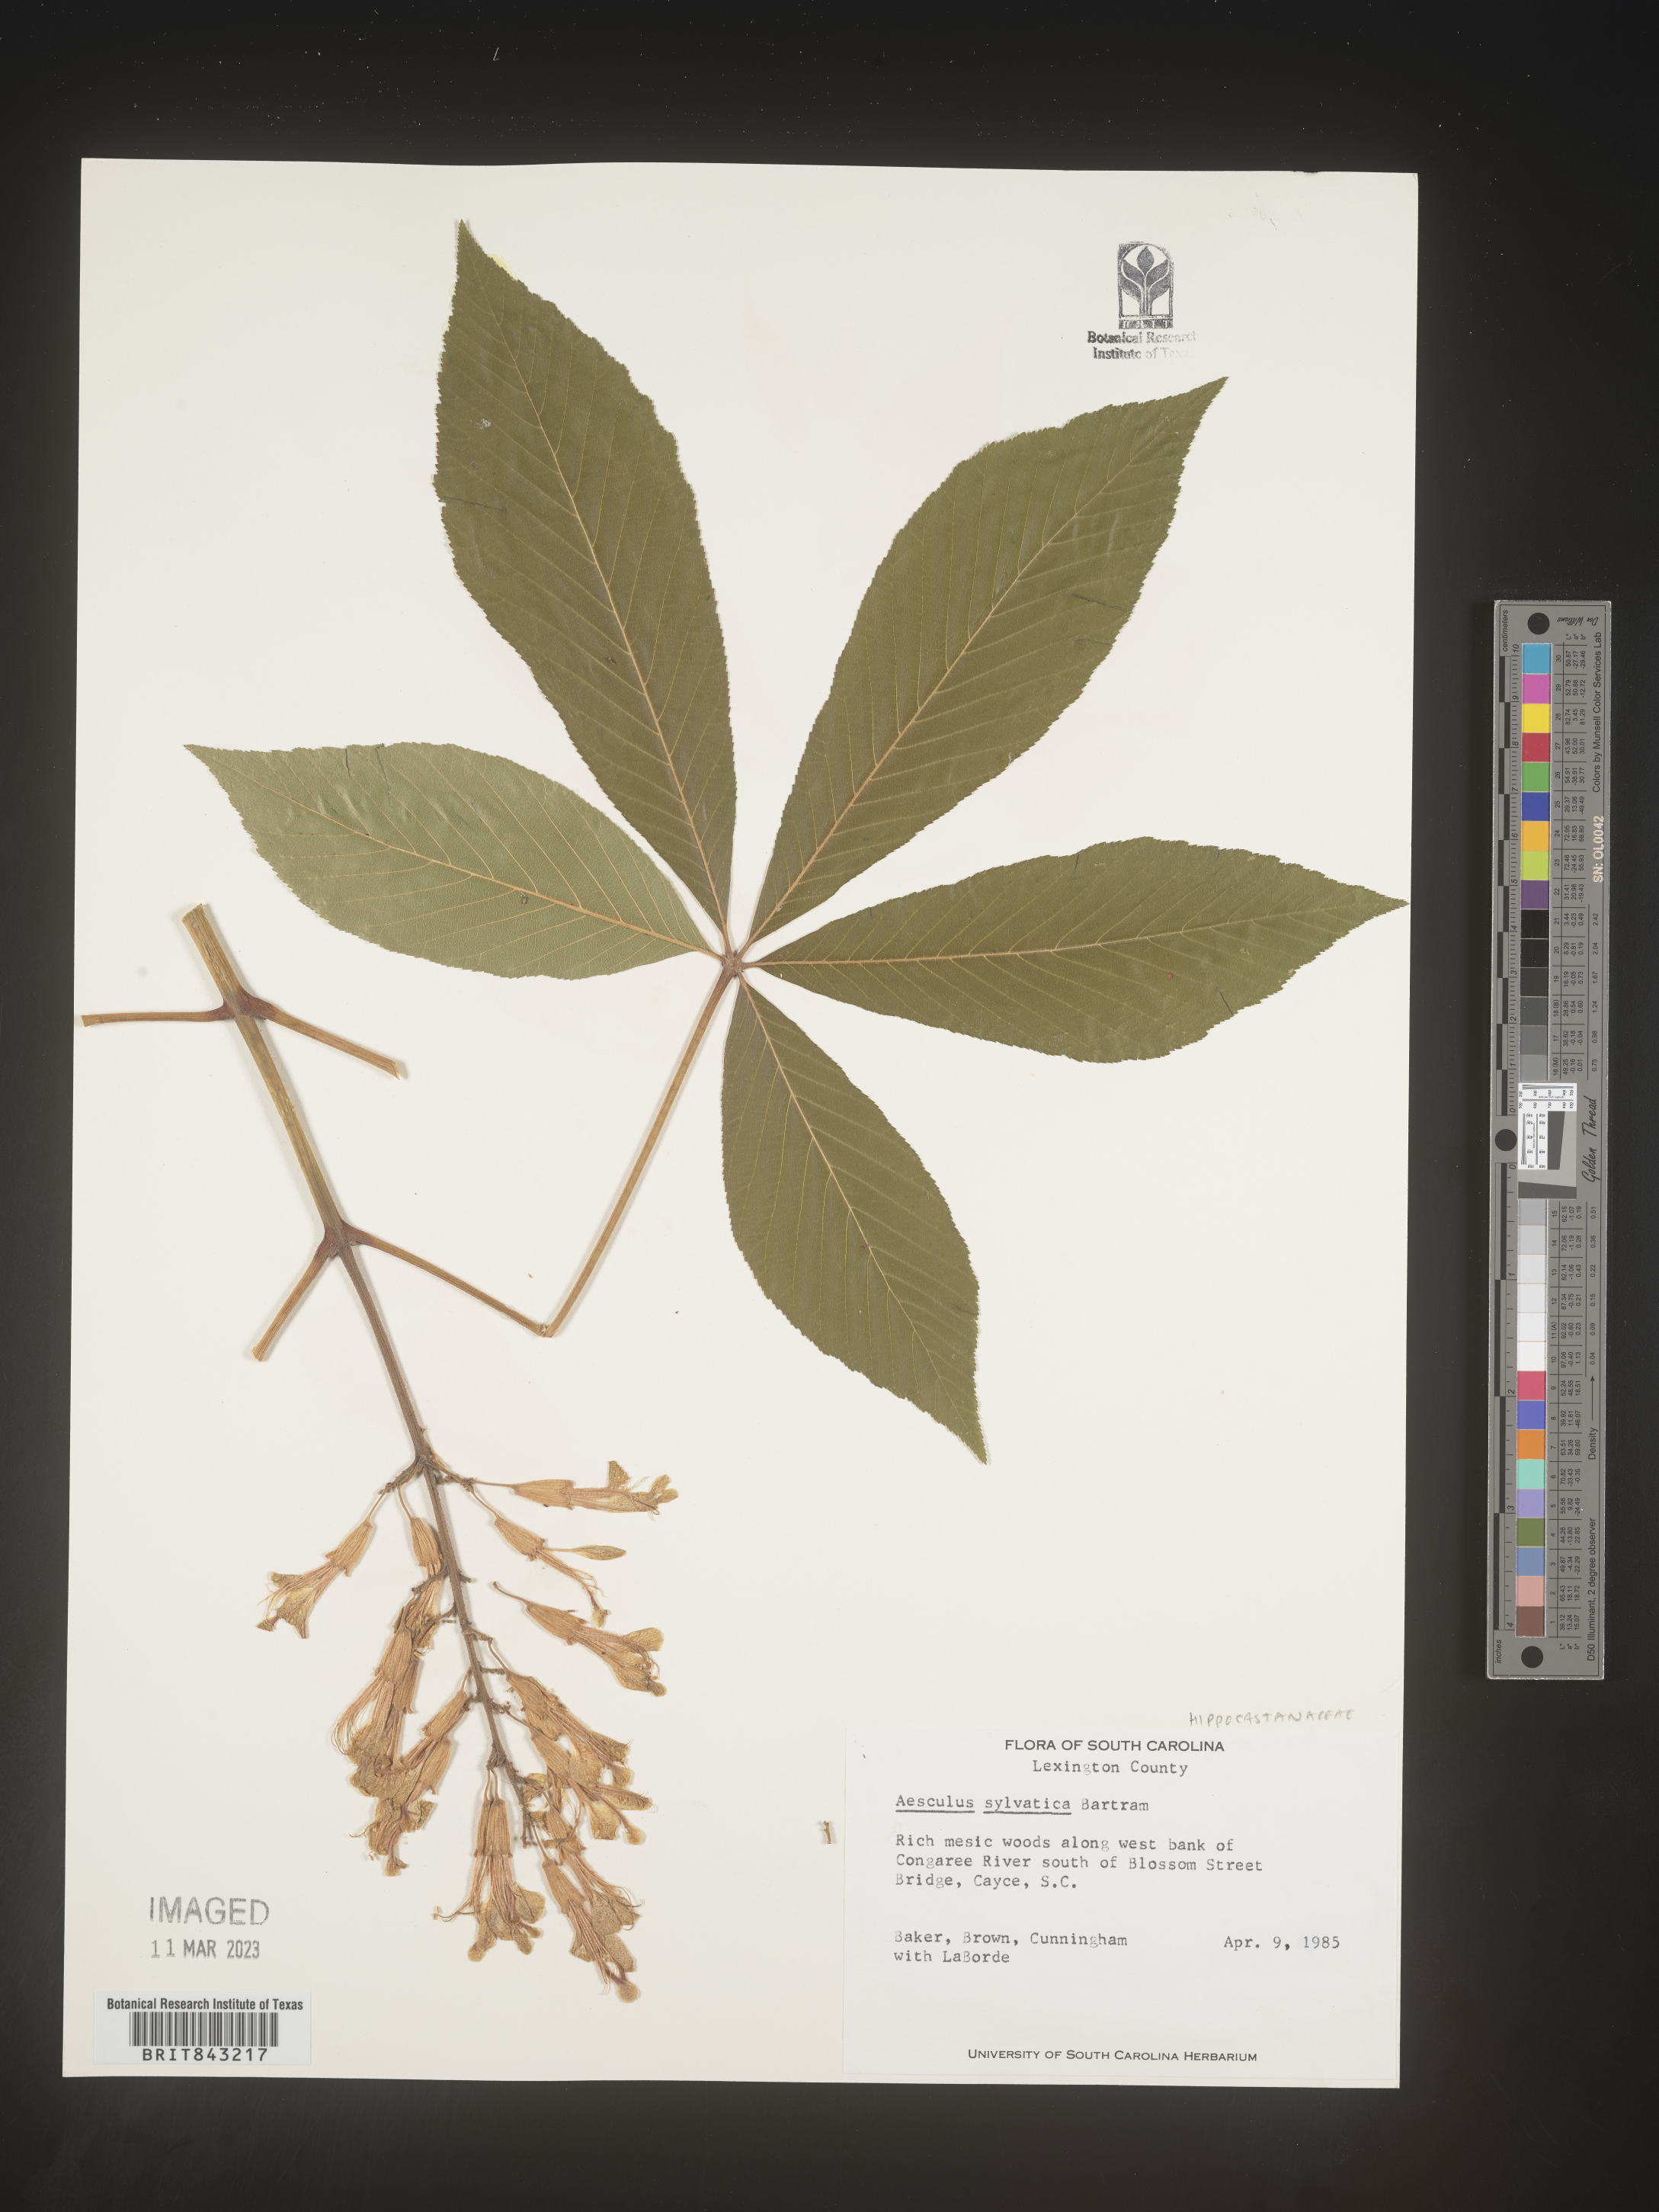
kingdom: Plantae
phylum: Tracheophyta
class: Magnoliopsida
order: Sapindales
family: Sapindaceae
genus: Aesculus
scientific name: Aesculus
